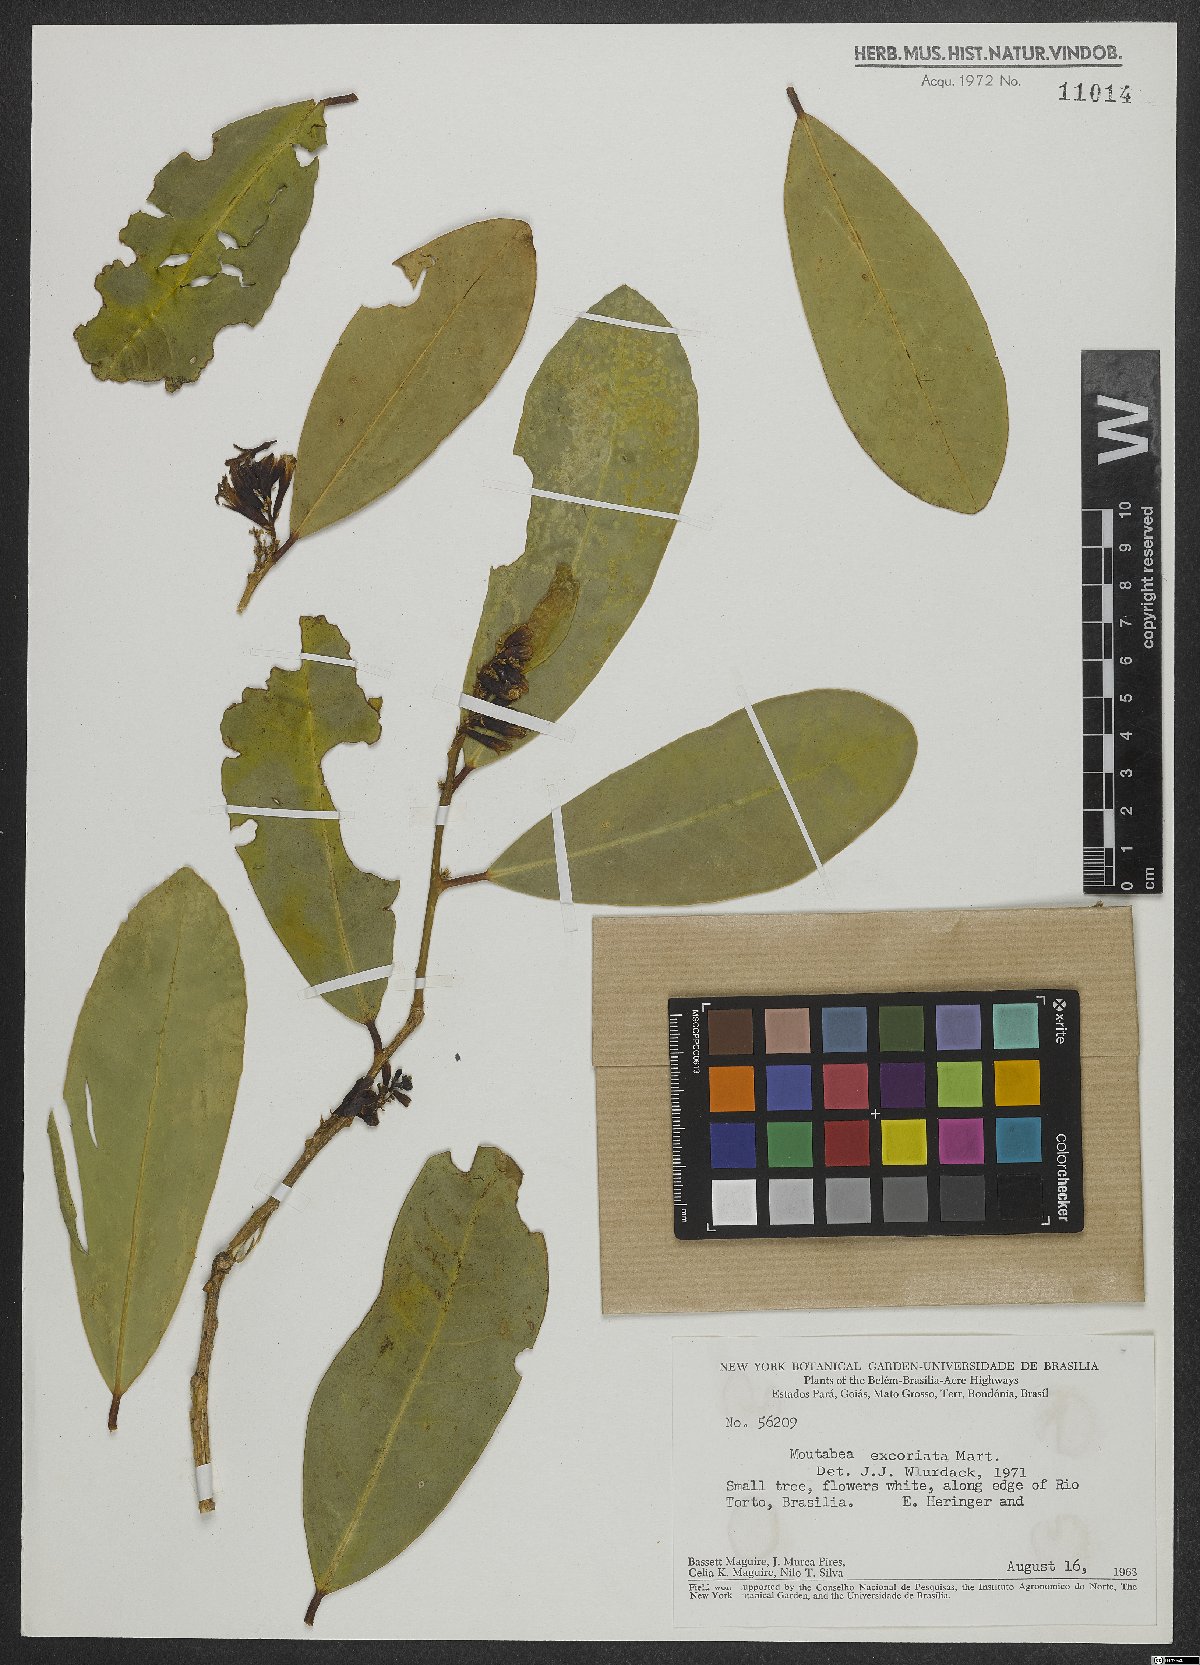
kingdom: Plantae
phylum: Tracheophyta
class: Magnoliopsida
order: Fabales
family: Polygalaceae
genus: Moutabea
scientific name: Moutabea excoriata
